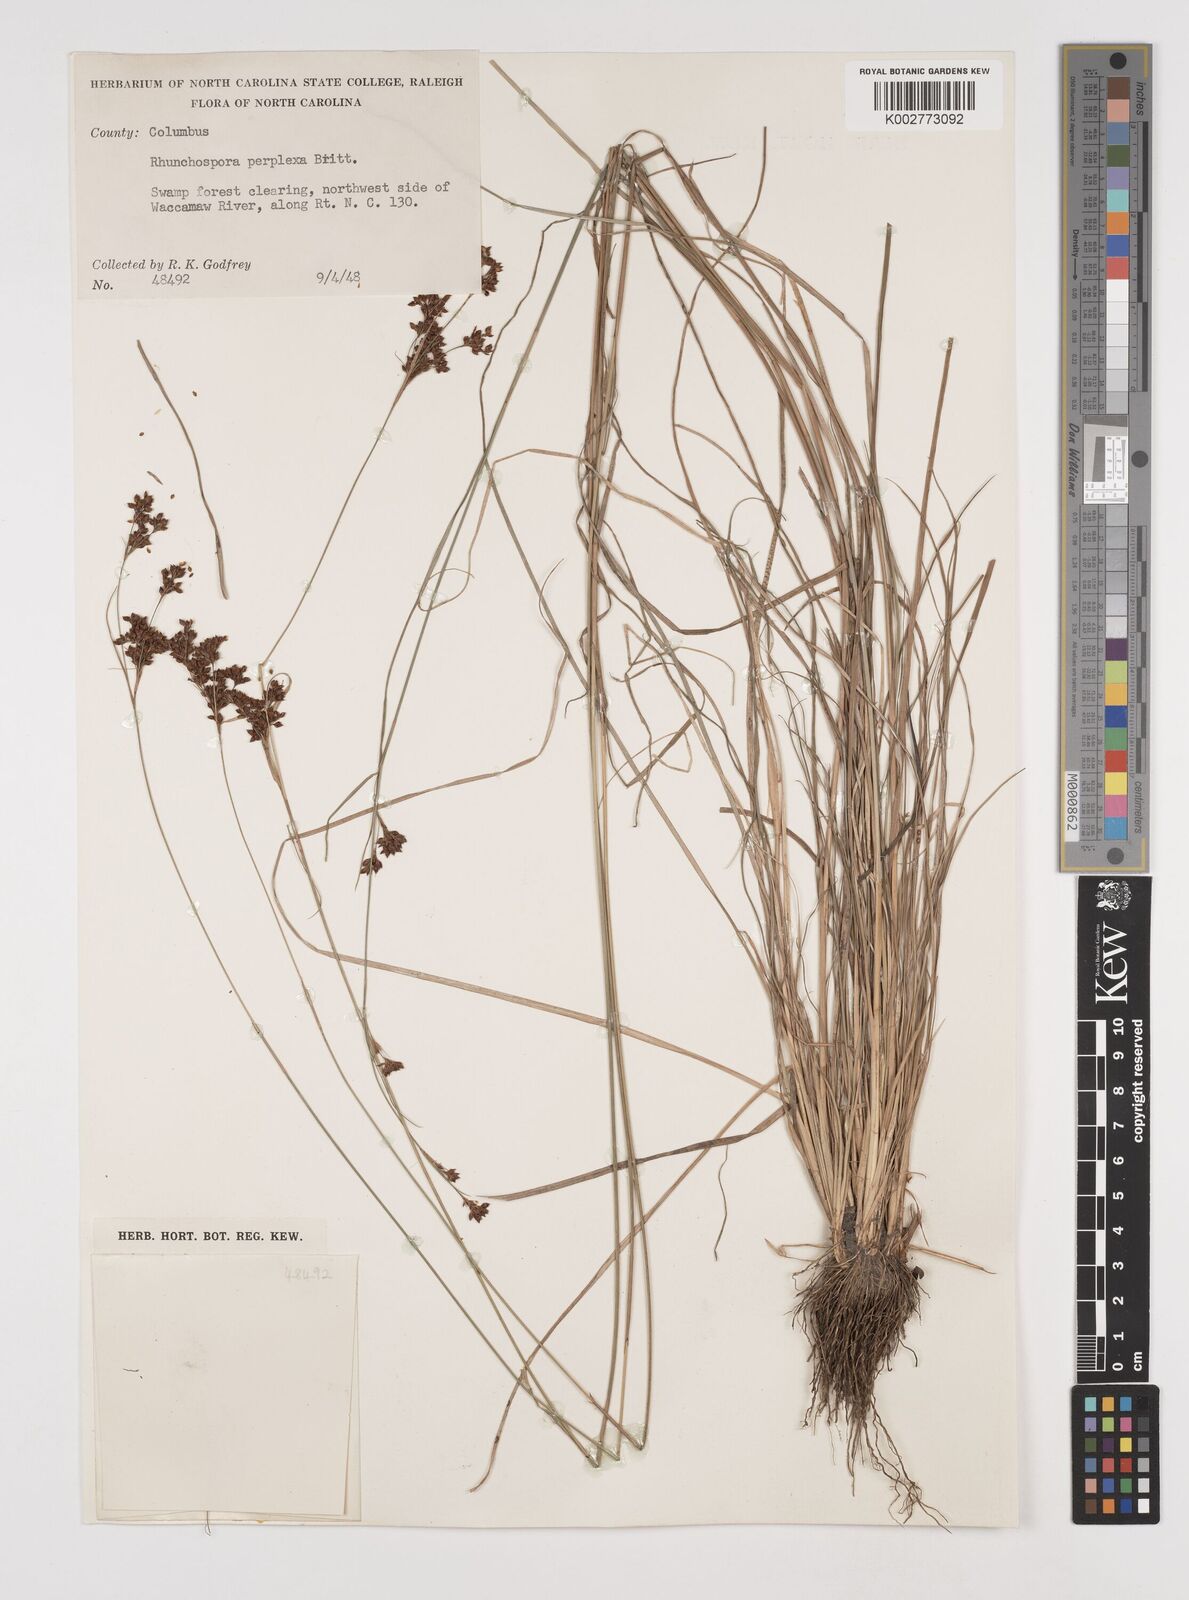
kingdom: Plantae
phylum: Tracheophyta
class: Liliopsida
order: Poales
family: Cyperaceae
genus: Rhynchospora
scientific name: Rhynchospora perplexa
